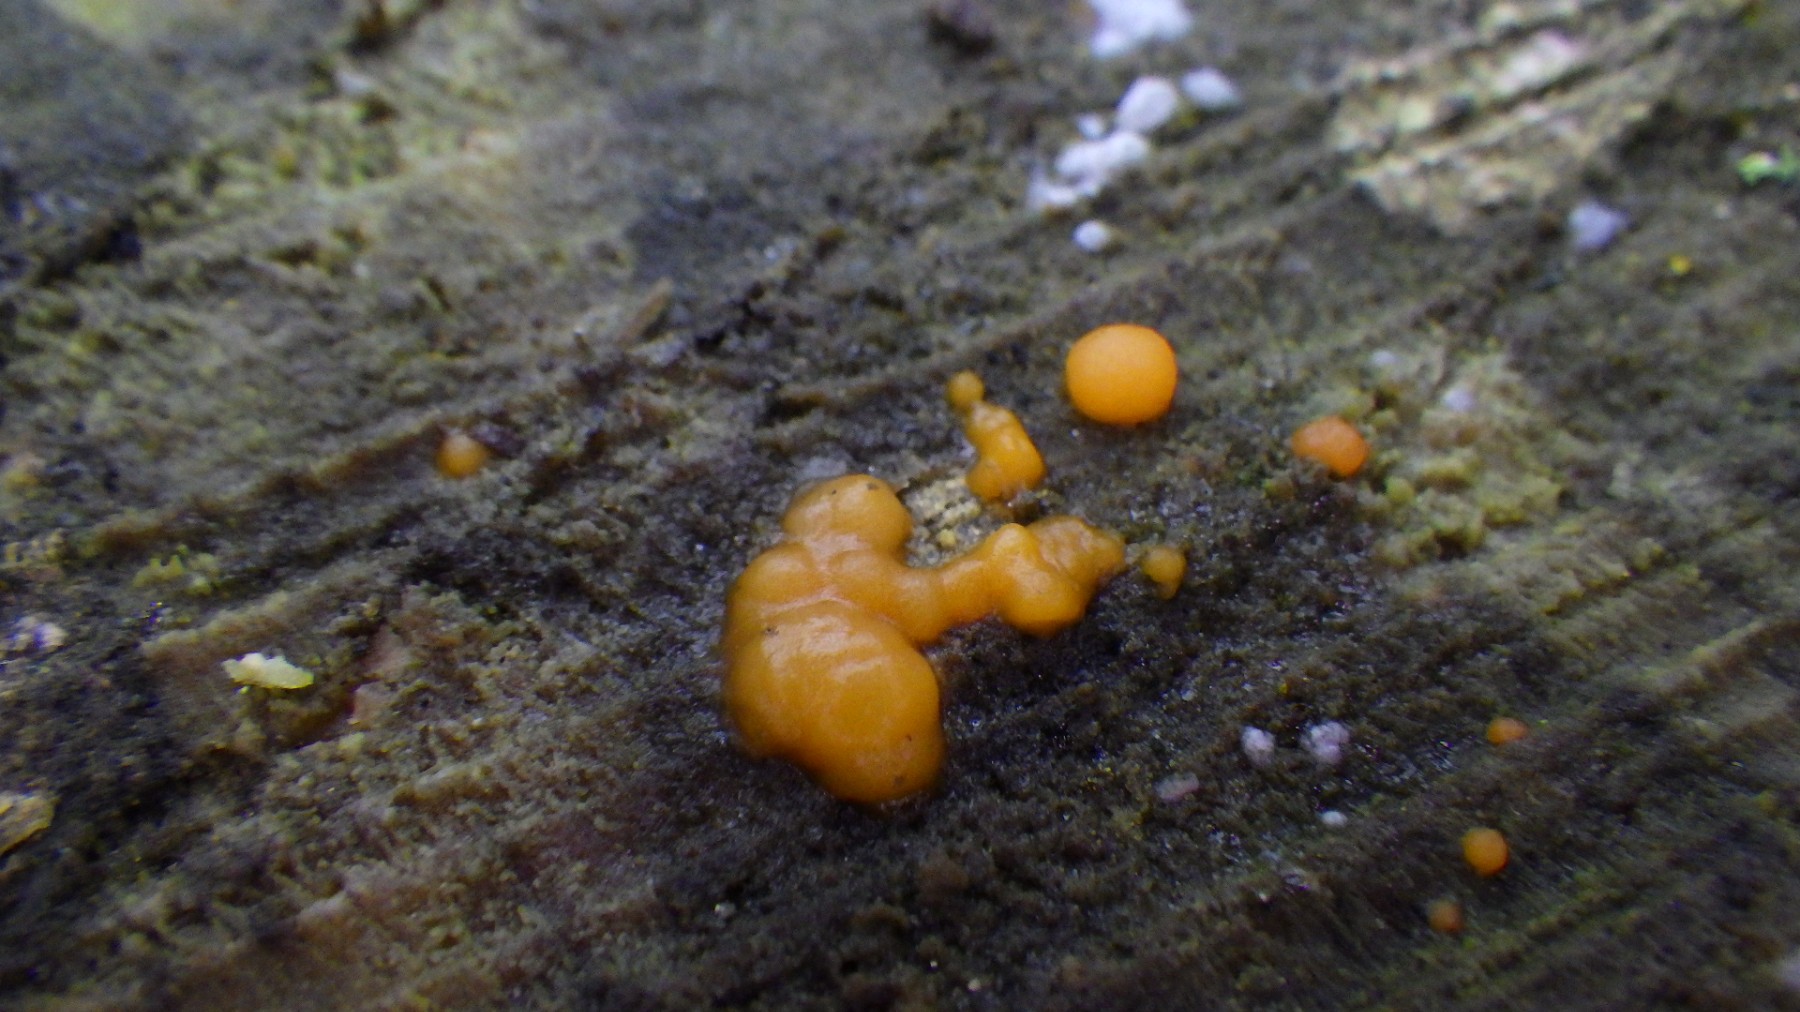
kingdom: Fungi
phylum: Basidiomycota
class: Dacrymycetes
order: Dacrymycetales
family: Dacrymycetaceae
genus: Dacrymyces
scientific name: Dacrymyces stillatus
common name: almindelig tåresvamp
